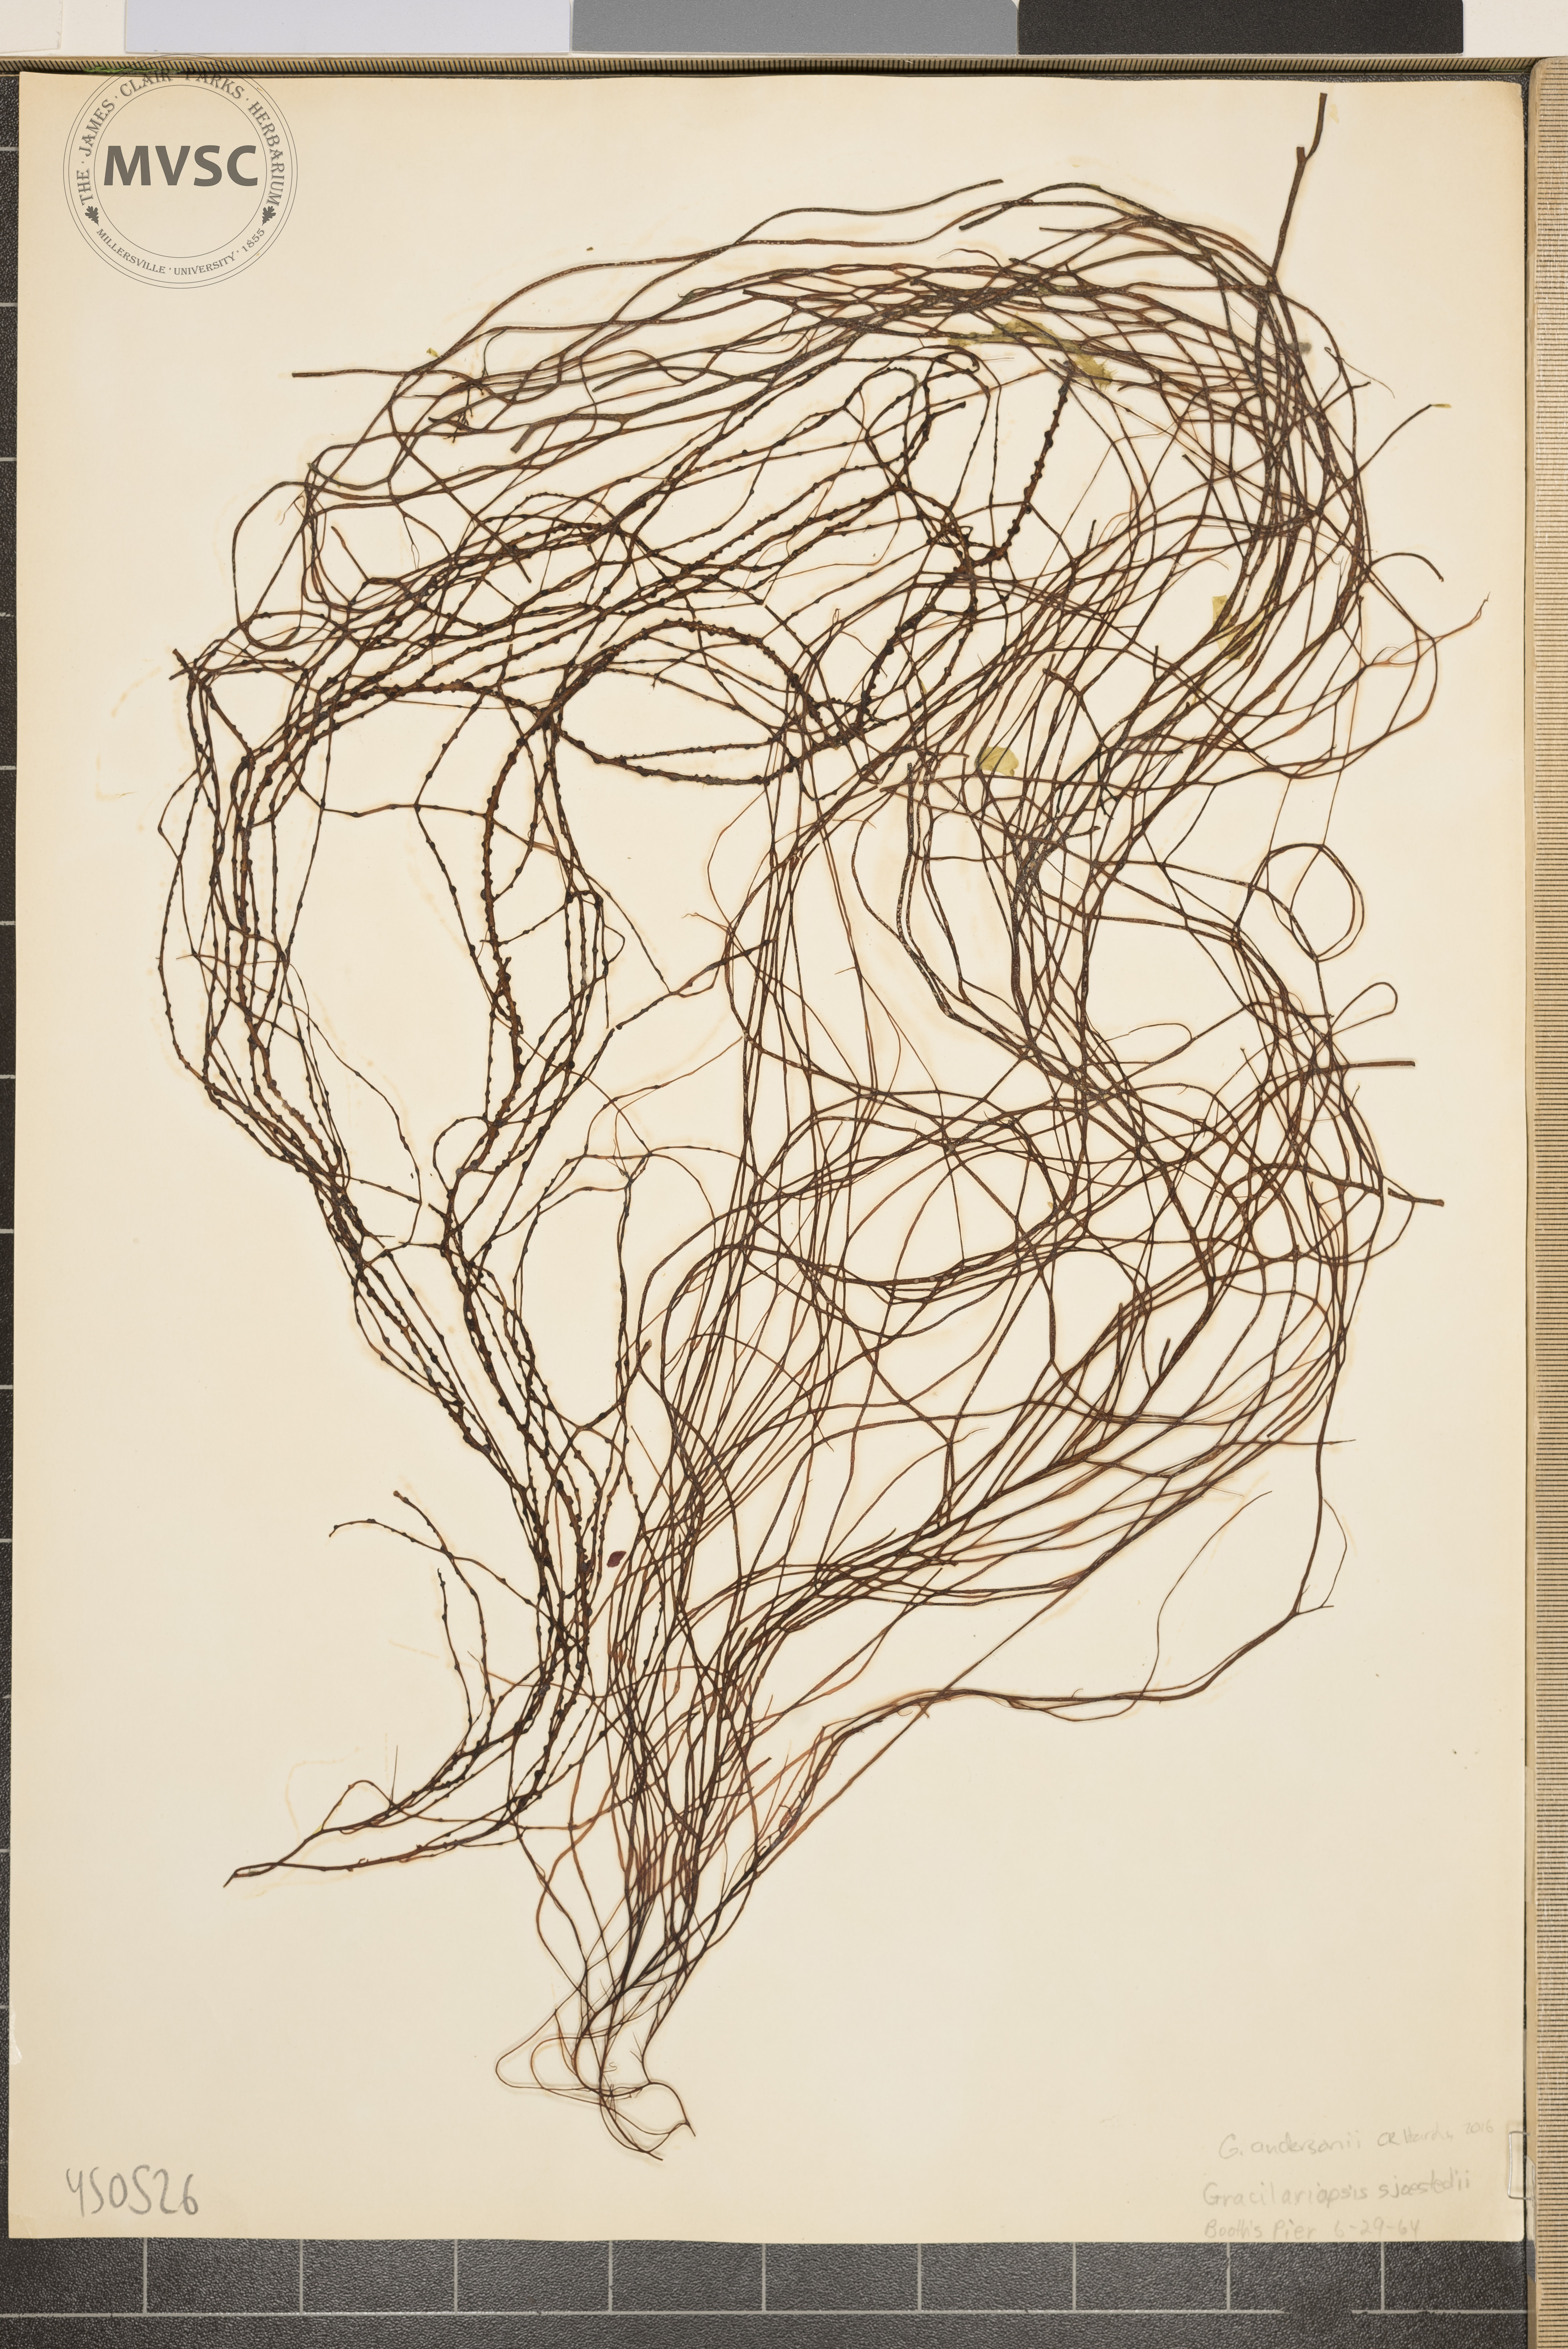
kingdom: Plantae
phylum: Rhodophyta
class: Florideophyceae
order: Gracilariales
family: Gracilariaceae
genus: Gracilariopsis
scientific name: Gracilariopsis andersonii
